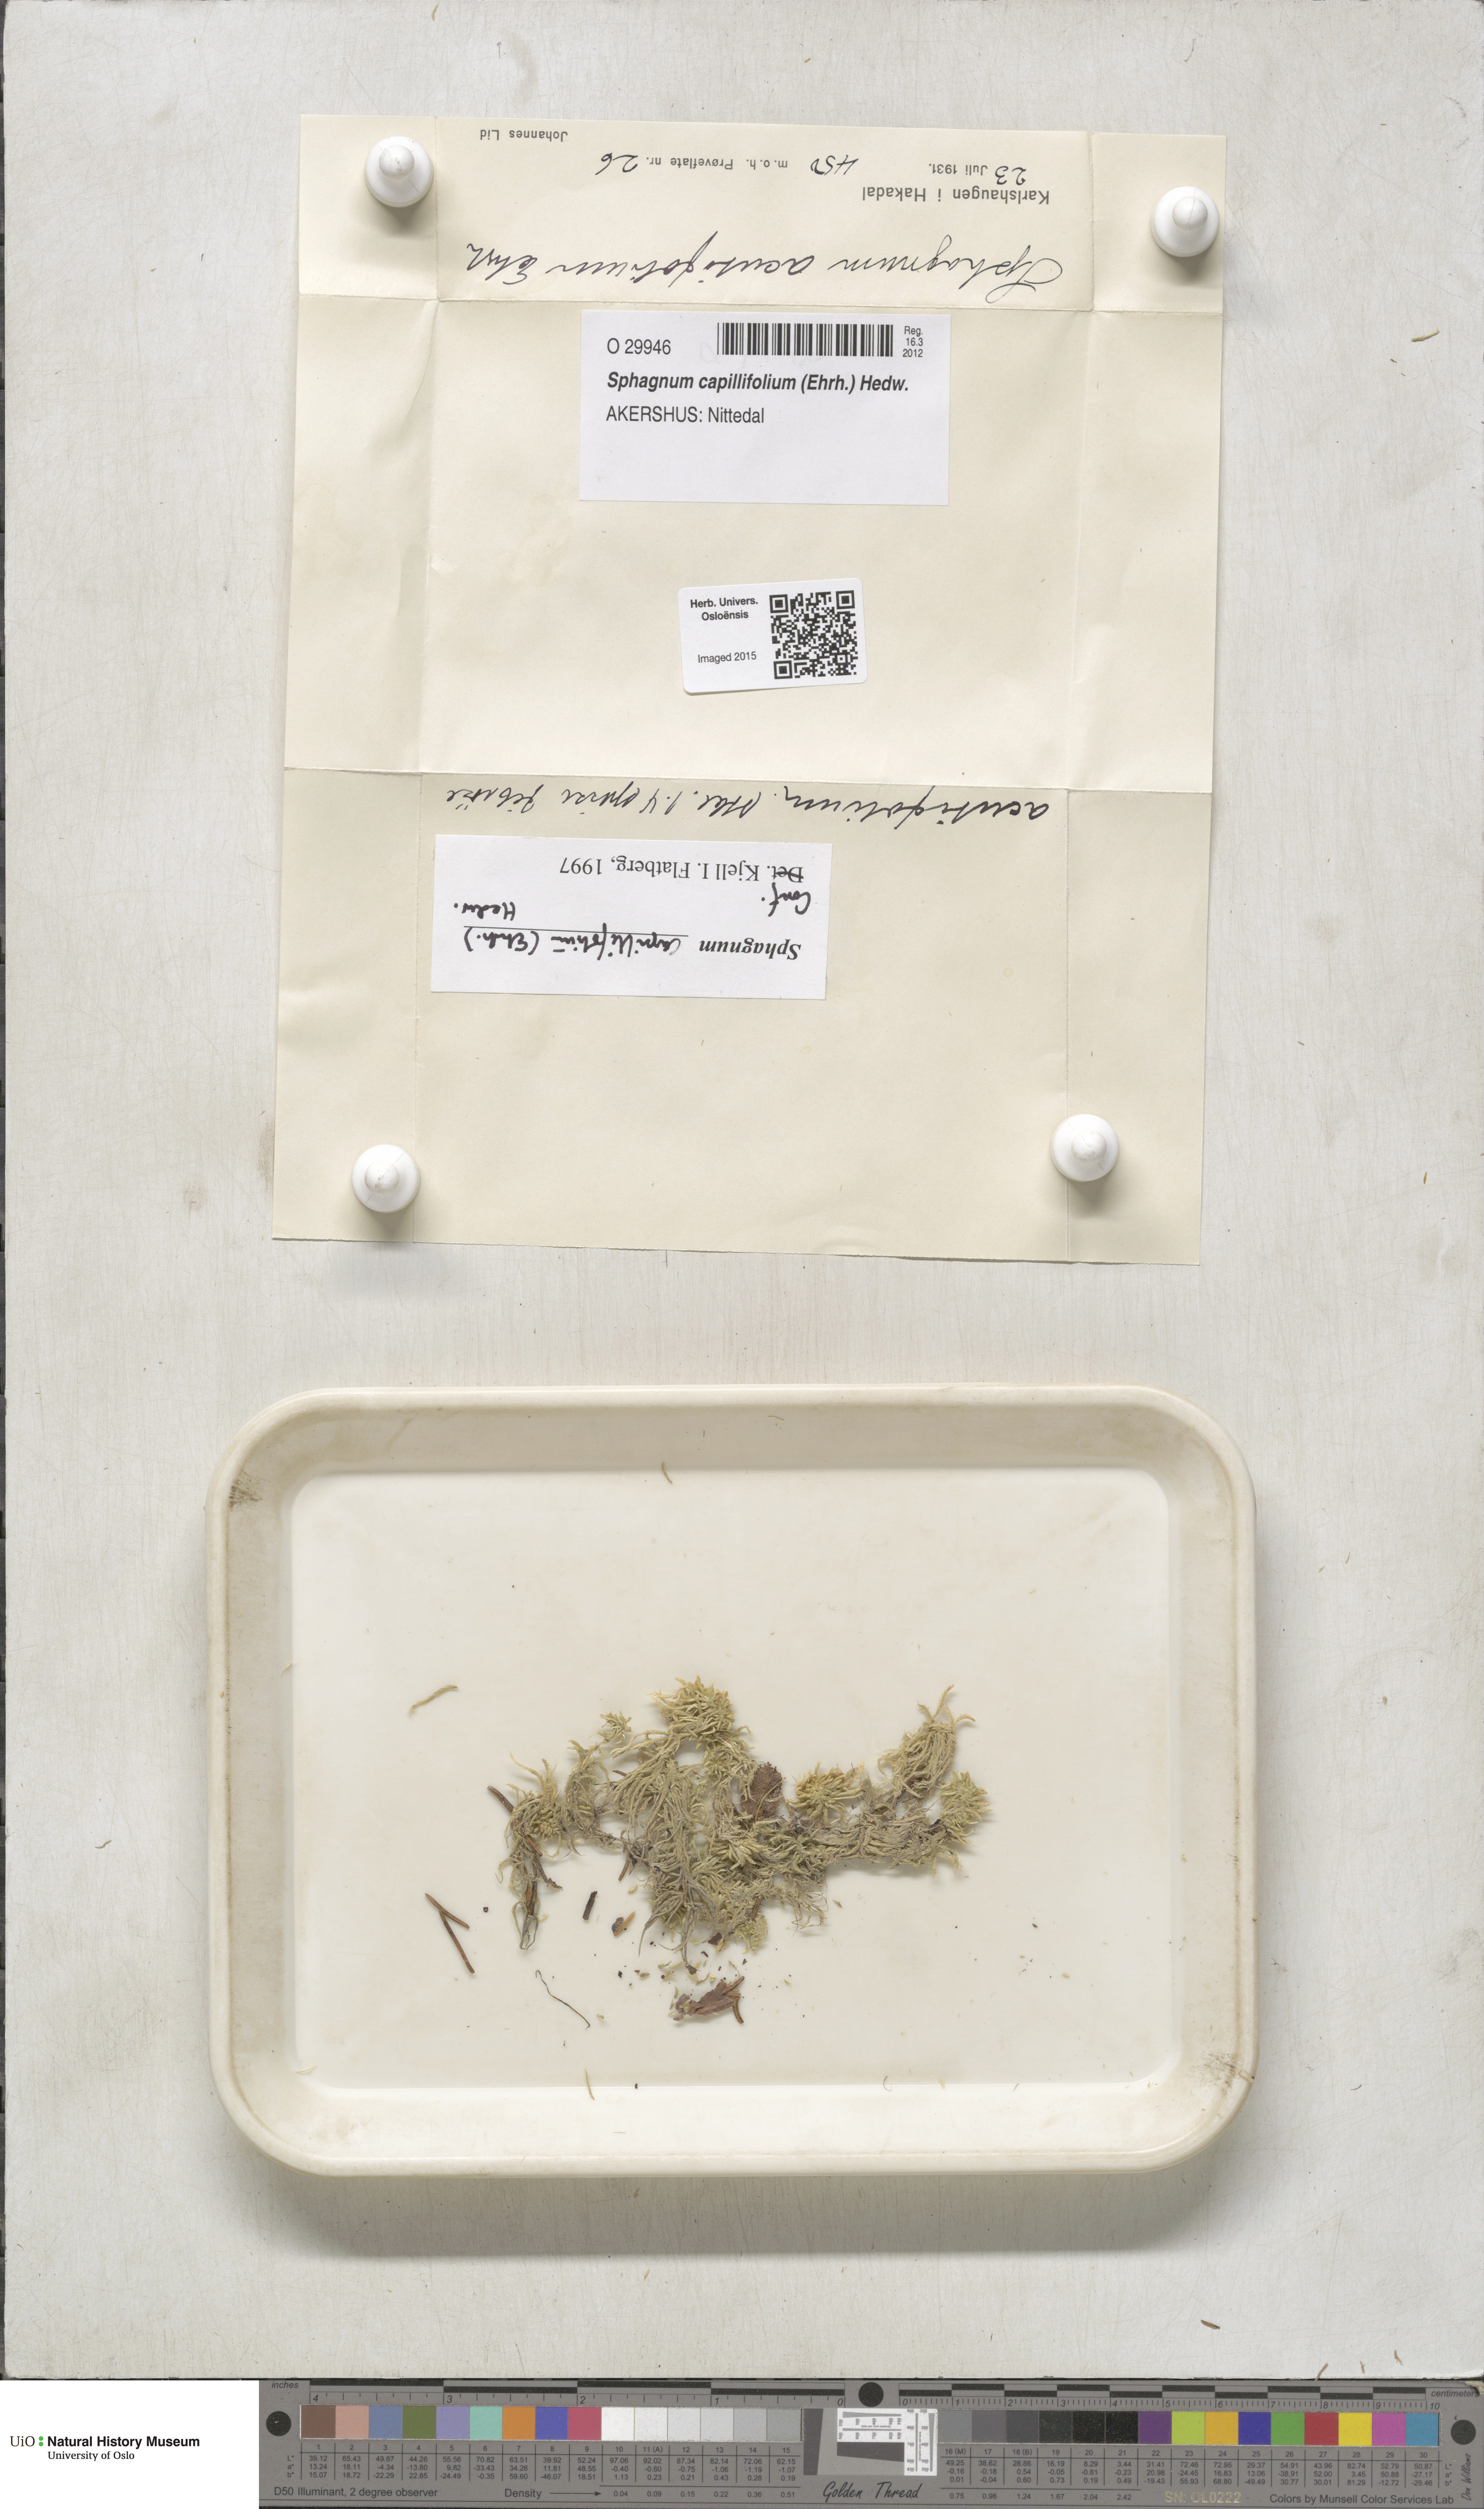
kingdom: Plantae
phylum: Bryophyta
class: Sphagnopsida
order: Sphagnales
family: Sphagnaceae
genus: Sphagnum
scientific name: Sphagnum capillifolium
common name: Small red peat moss
